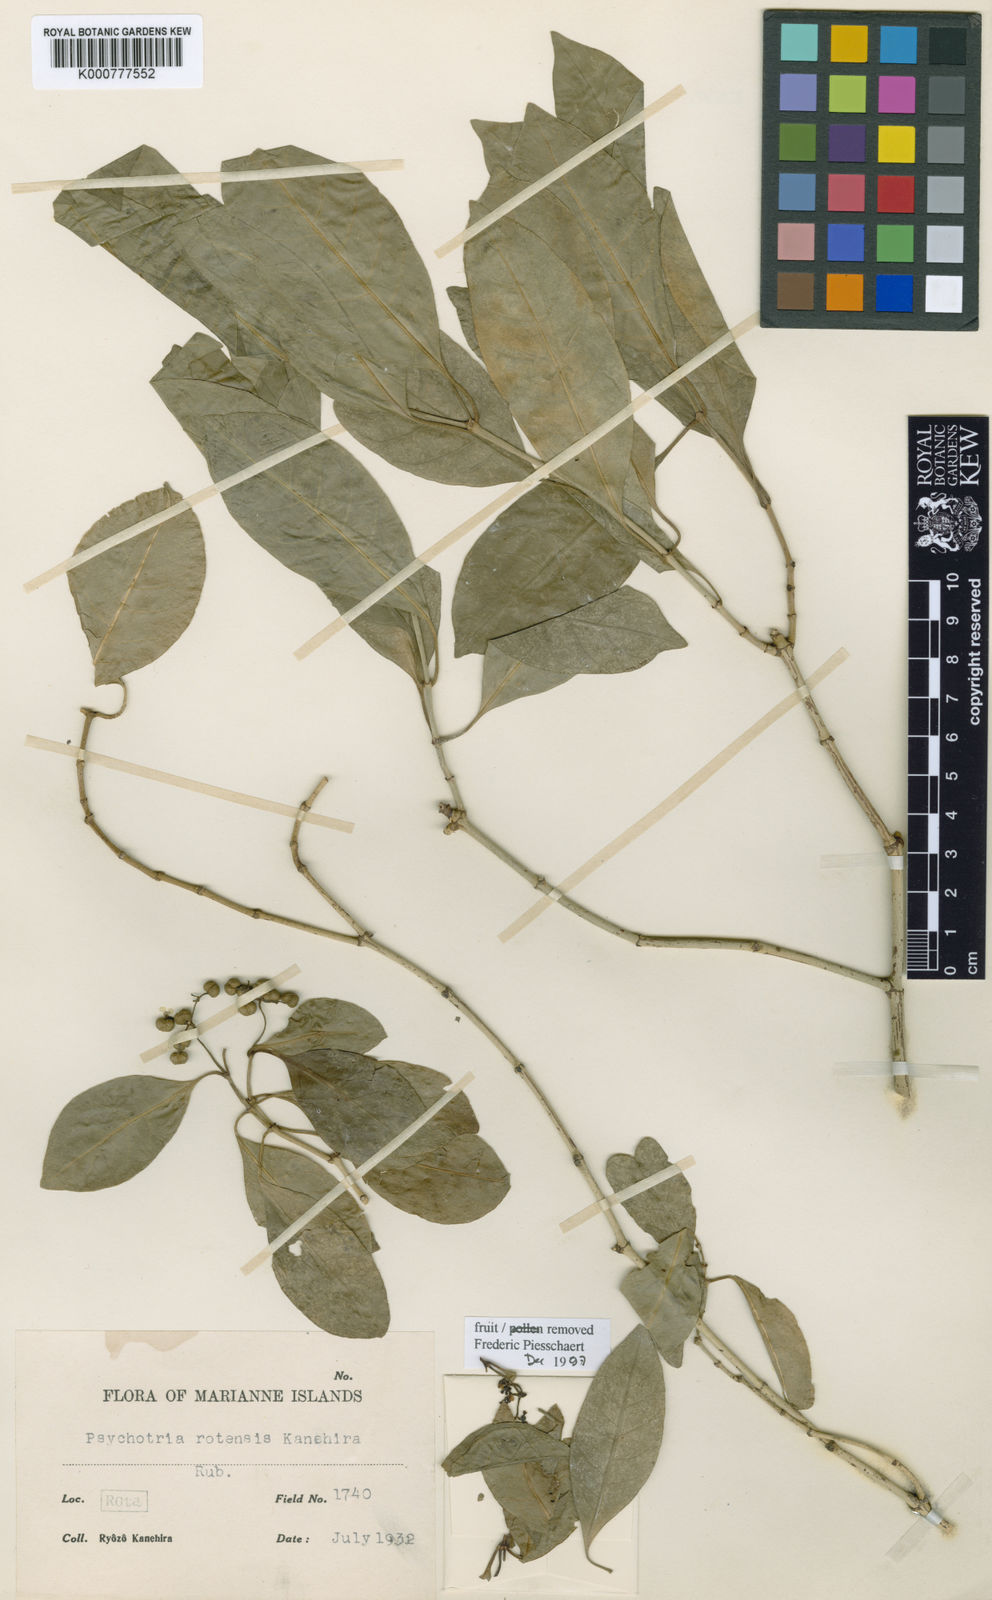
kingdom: Plantae
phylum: Tracheophyta
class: Magnoliopsida
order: Gentianales
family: Rubiaceae
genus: Psychotria
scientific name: Psychotria rotensis
